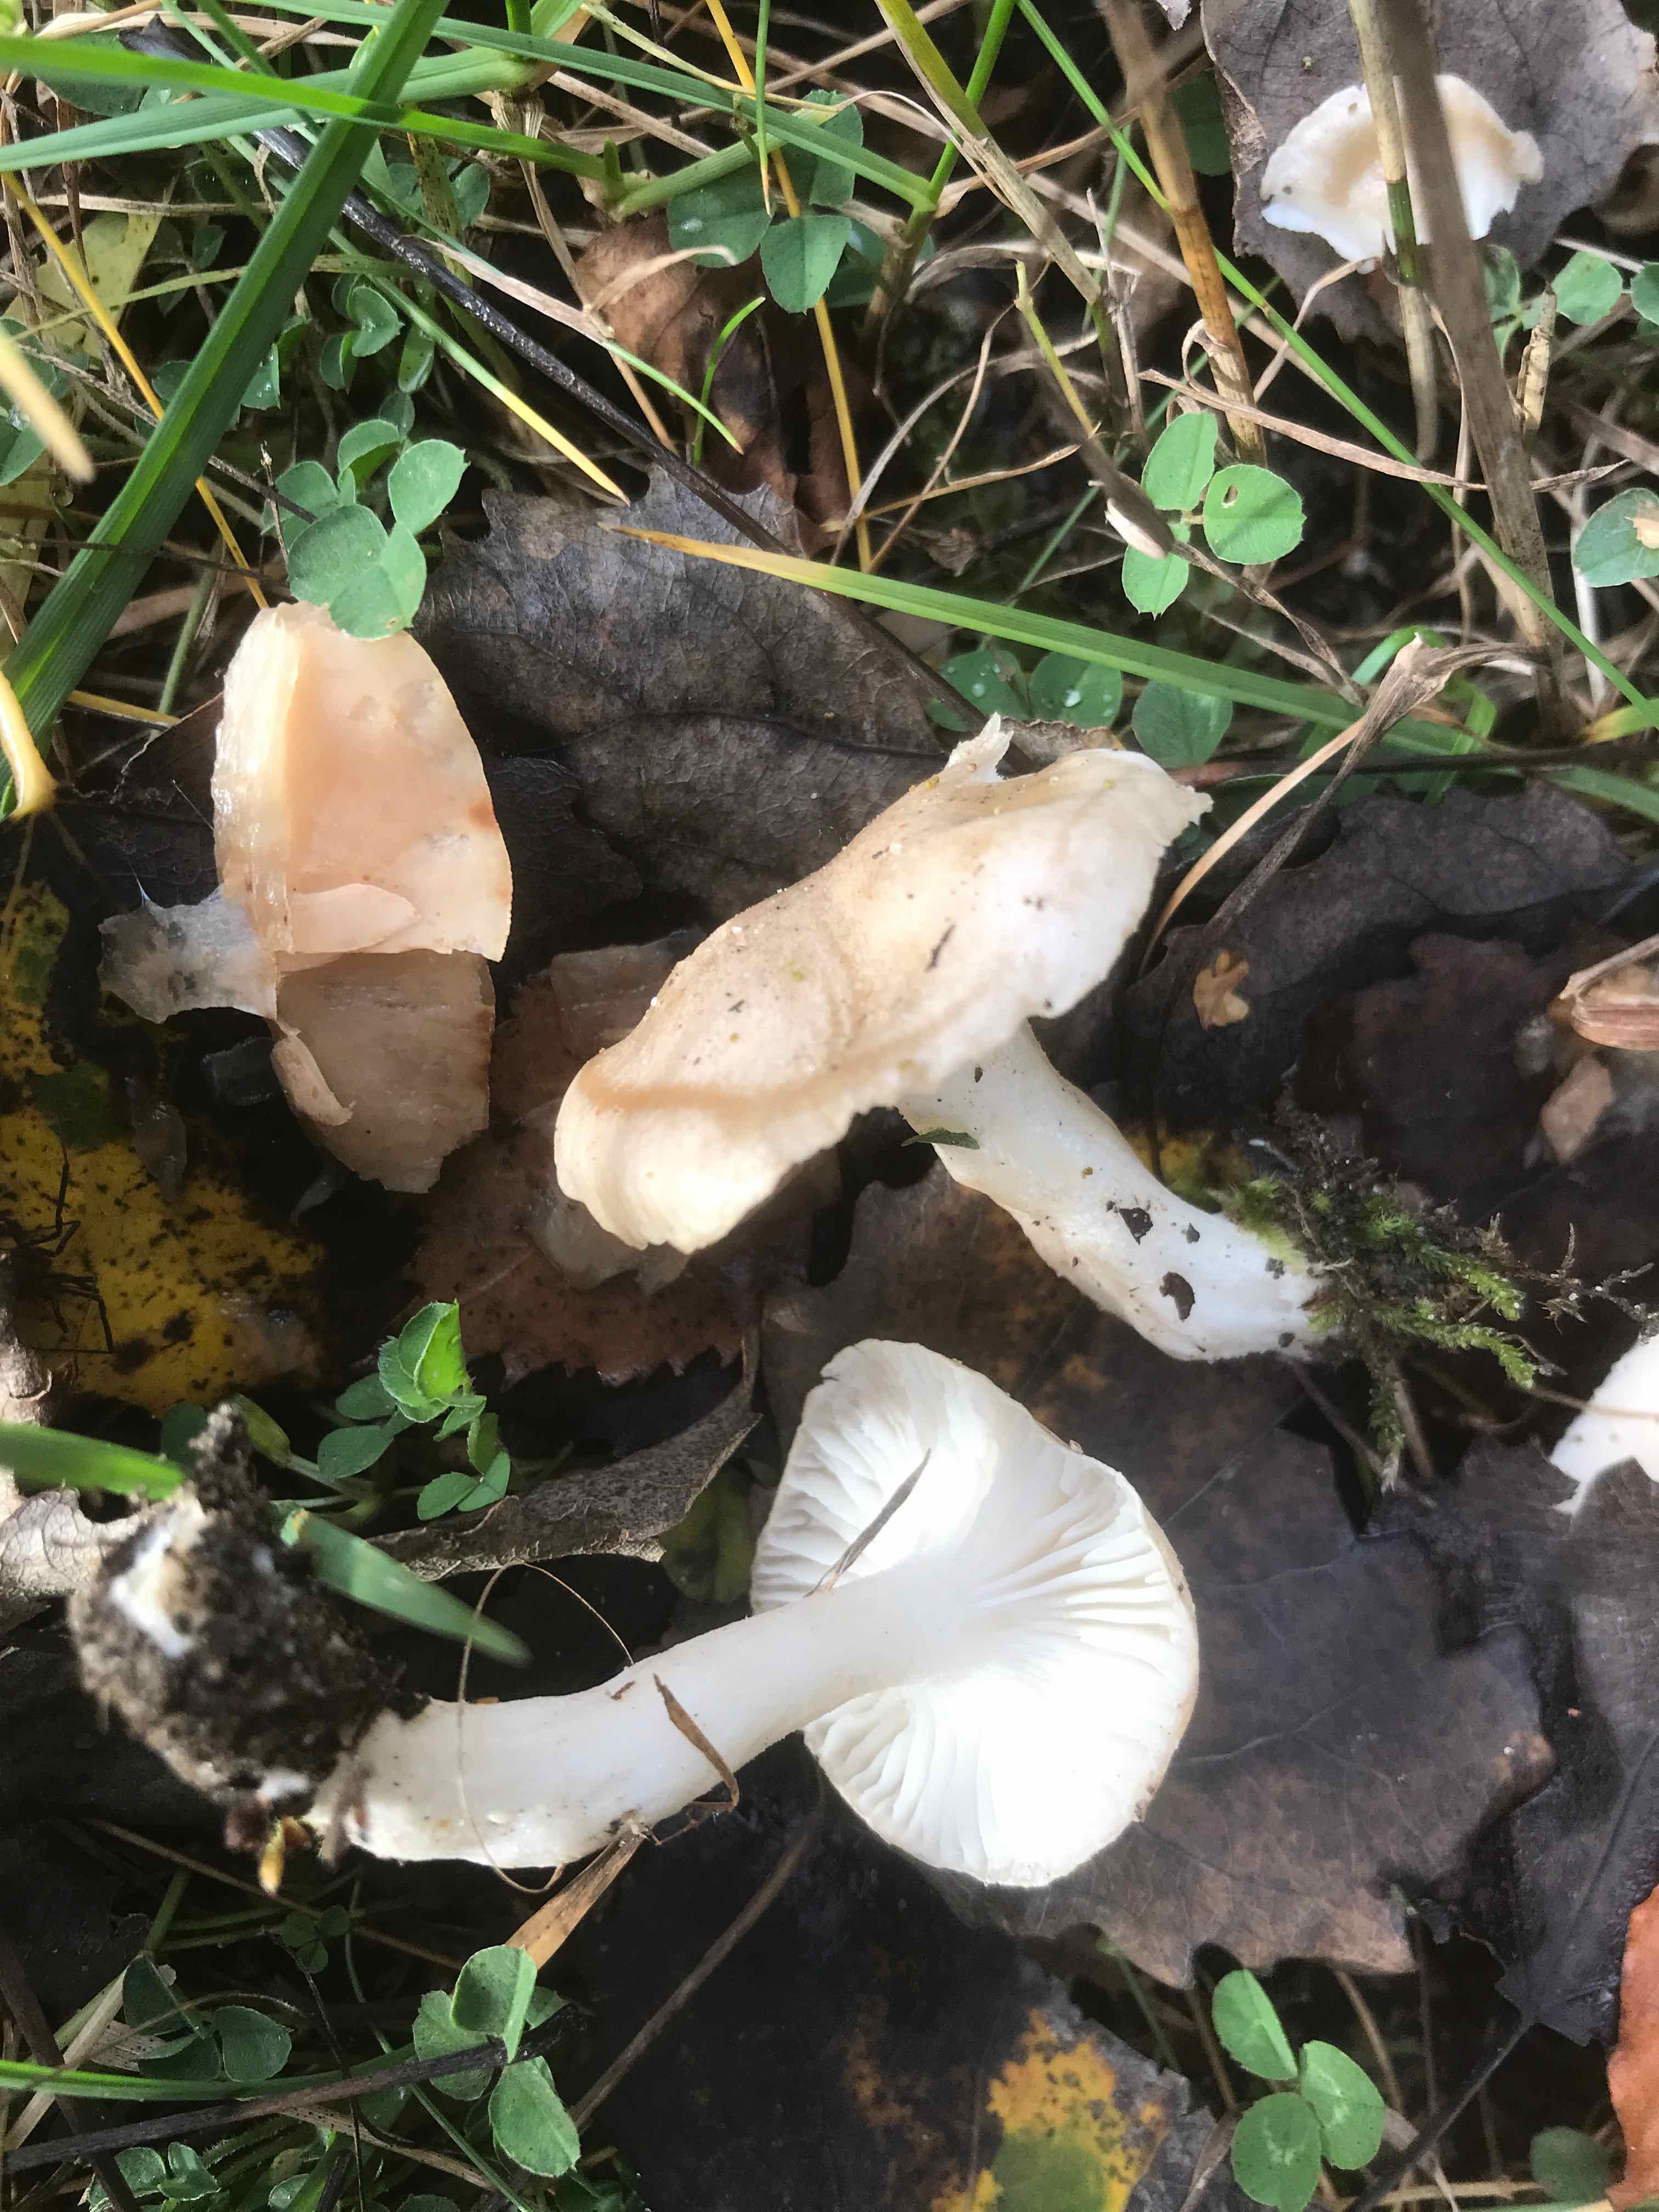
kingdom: Fungi
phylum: Basidiomycota
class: Agaricomycetes
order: Agaricales
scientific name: Agaricales
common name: champignonordenen
